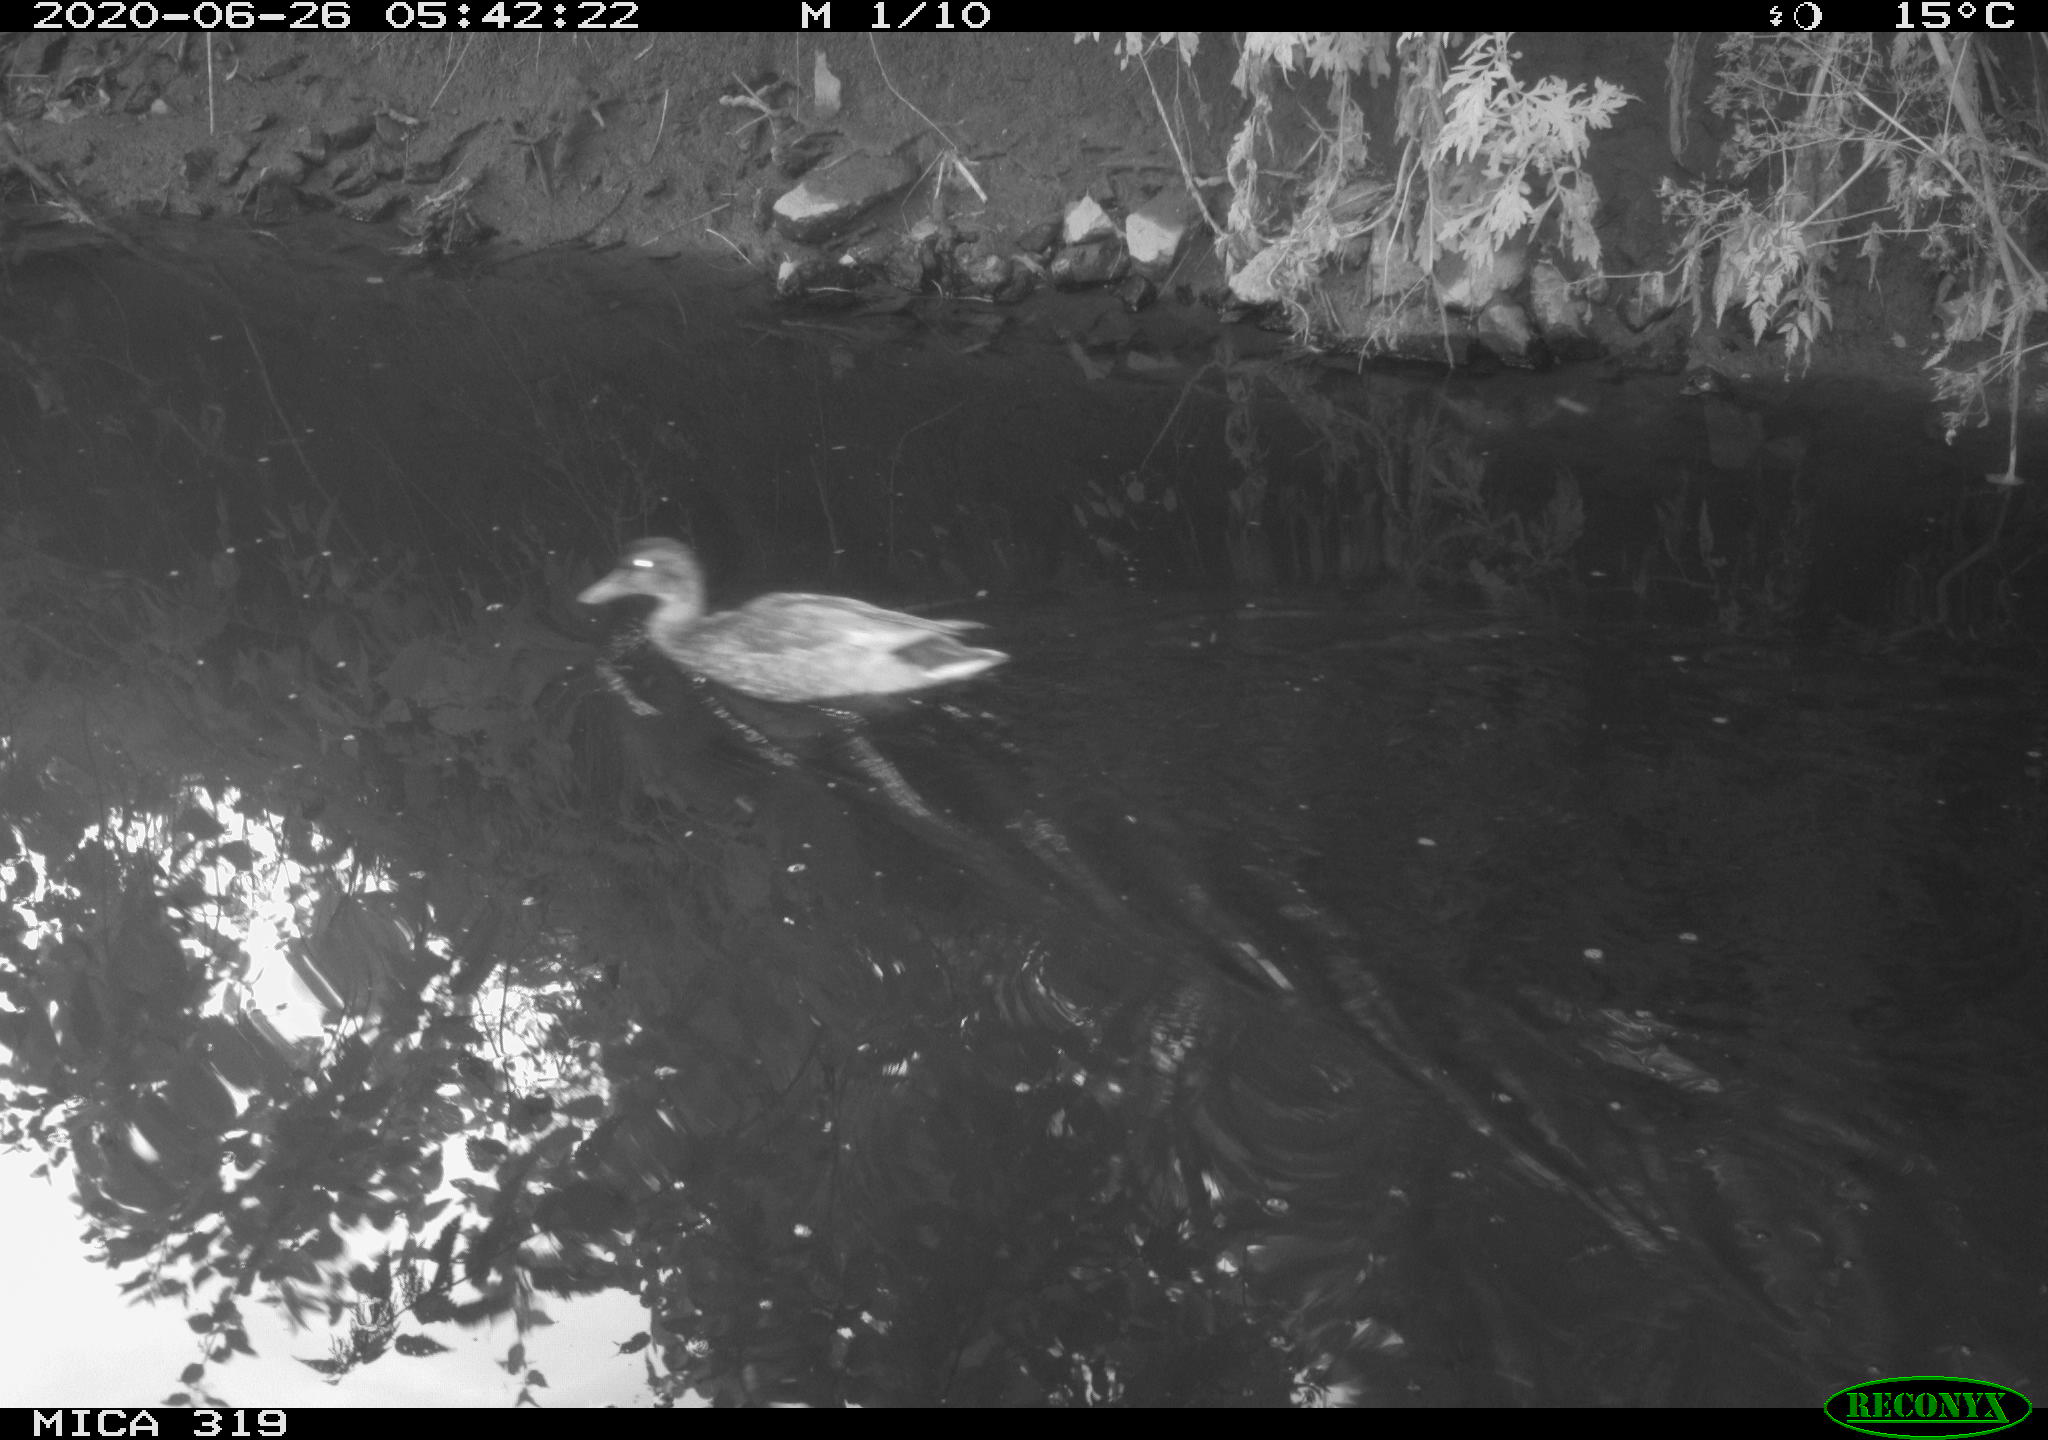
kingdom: Animalia
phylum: Chordata
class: Aves
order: Anseriformes
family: Anatidae
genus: Anas
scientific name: Anas platyrhynchos
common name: Mallard
